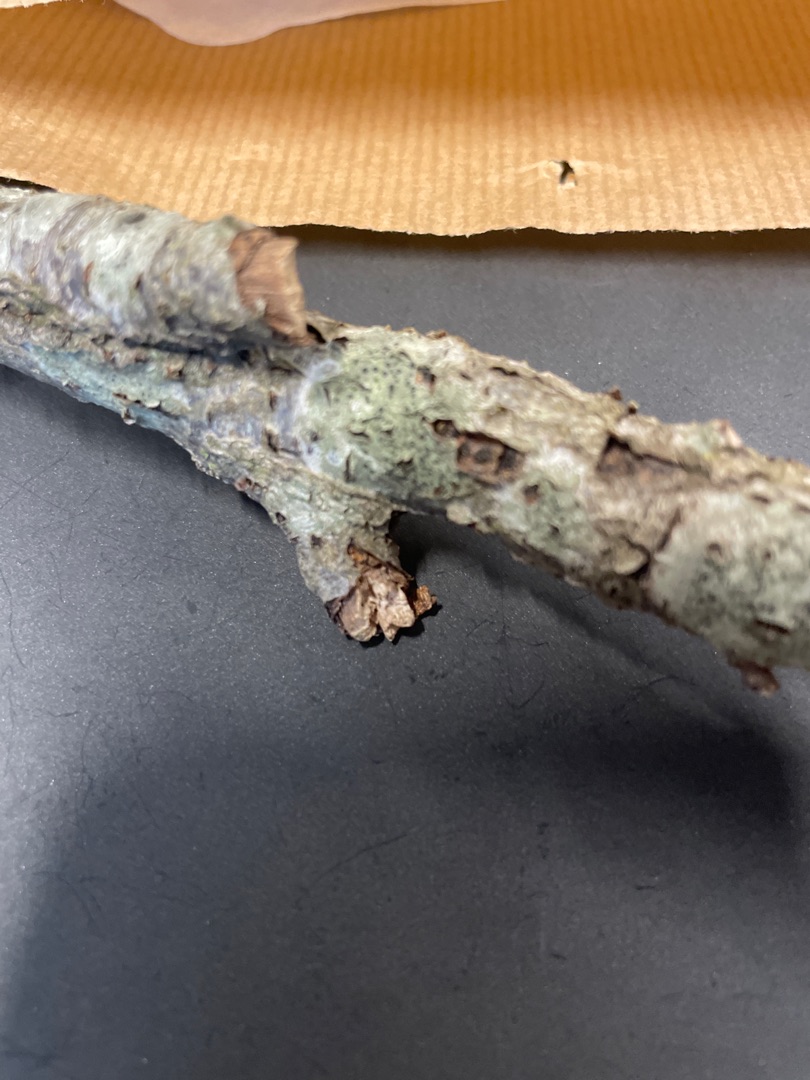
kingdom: Fungi
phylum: Ascomycota
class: Lecanoromycetes
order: Lecanorales
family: Lecanoraceae
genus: Lecidella
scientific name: Lecidella elaeochroma
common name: Grågrøn skivelav
